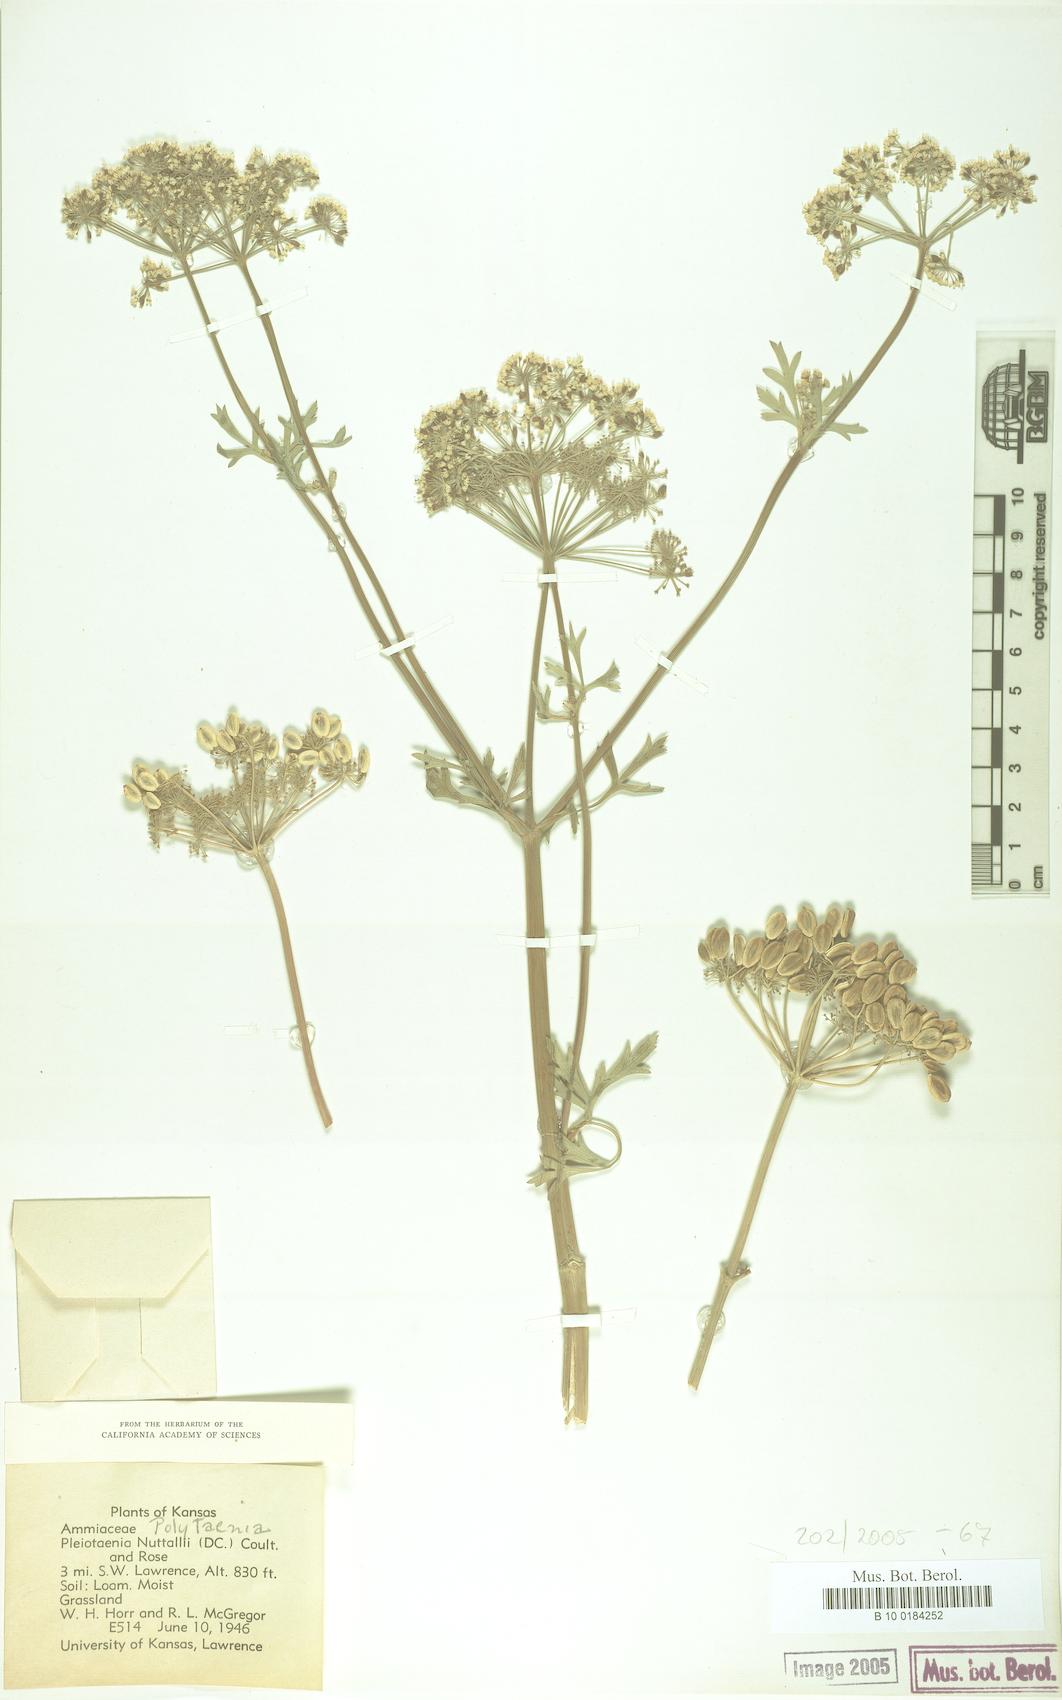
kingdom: Plantae
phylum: Tracheophyta
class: Magnoliopsida
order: Apiales
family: Apiaceae
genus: Polytaenia
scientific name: Polytaenia nuttallii
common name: Prairie-parsley
